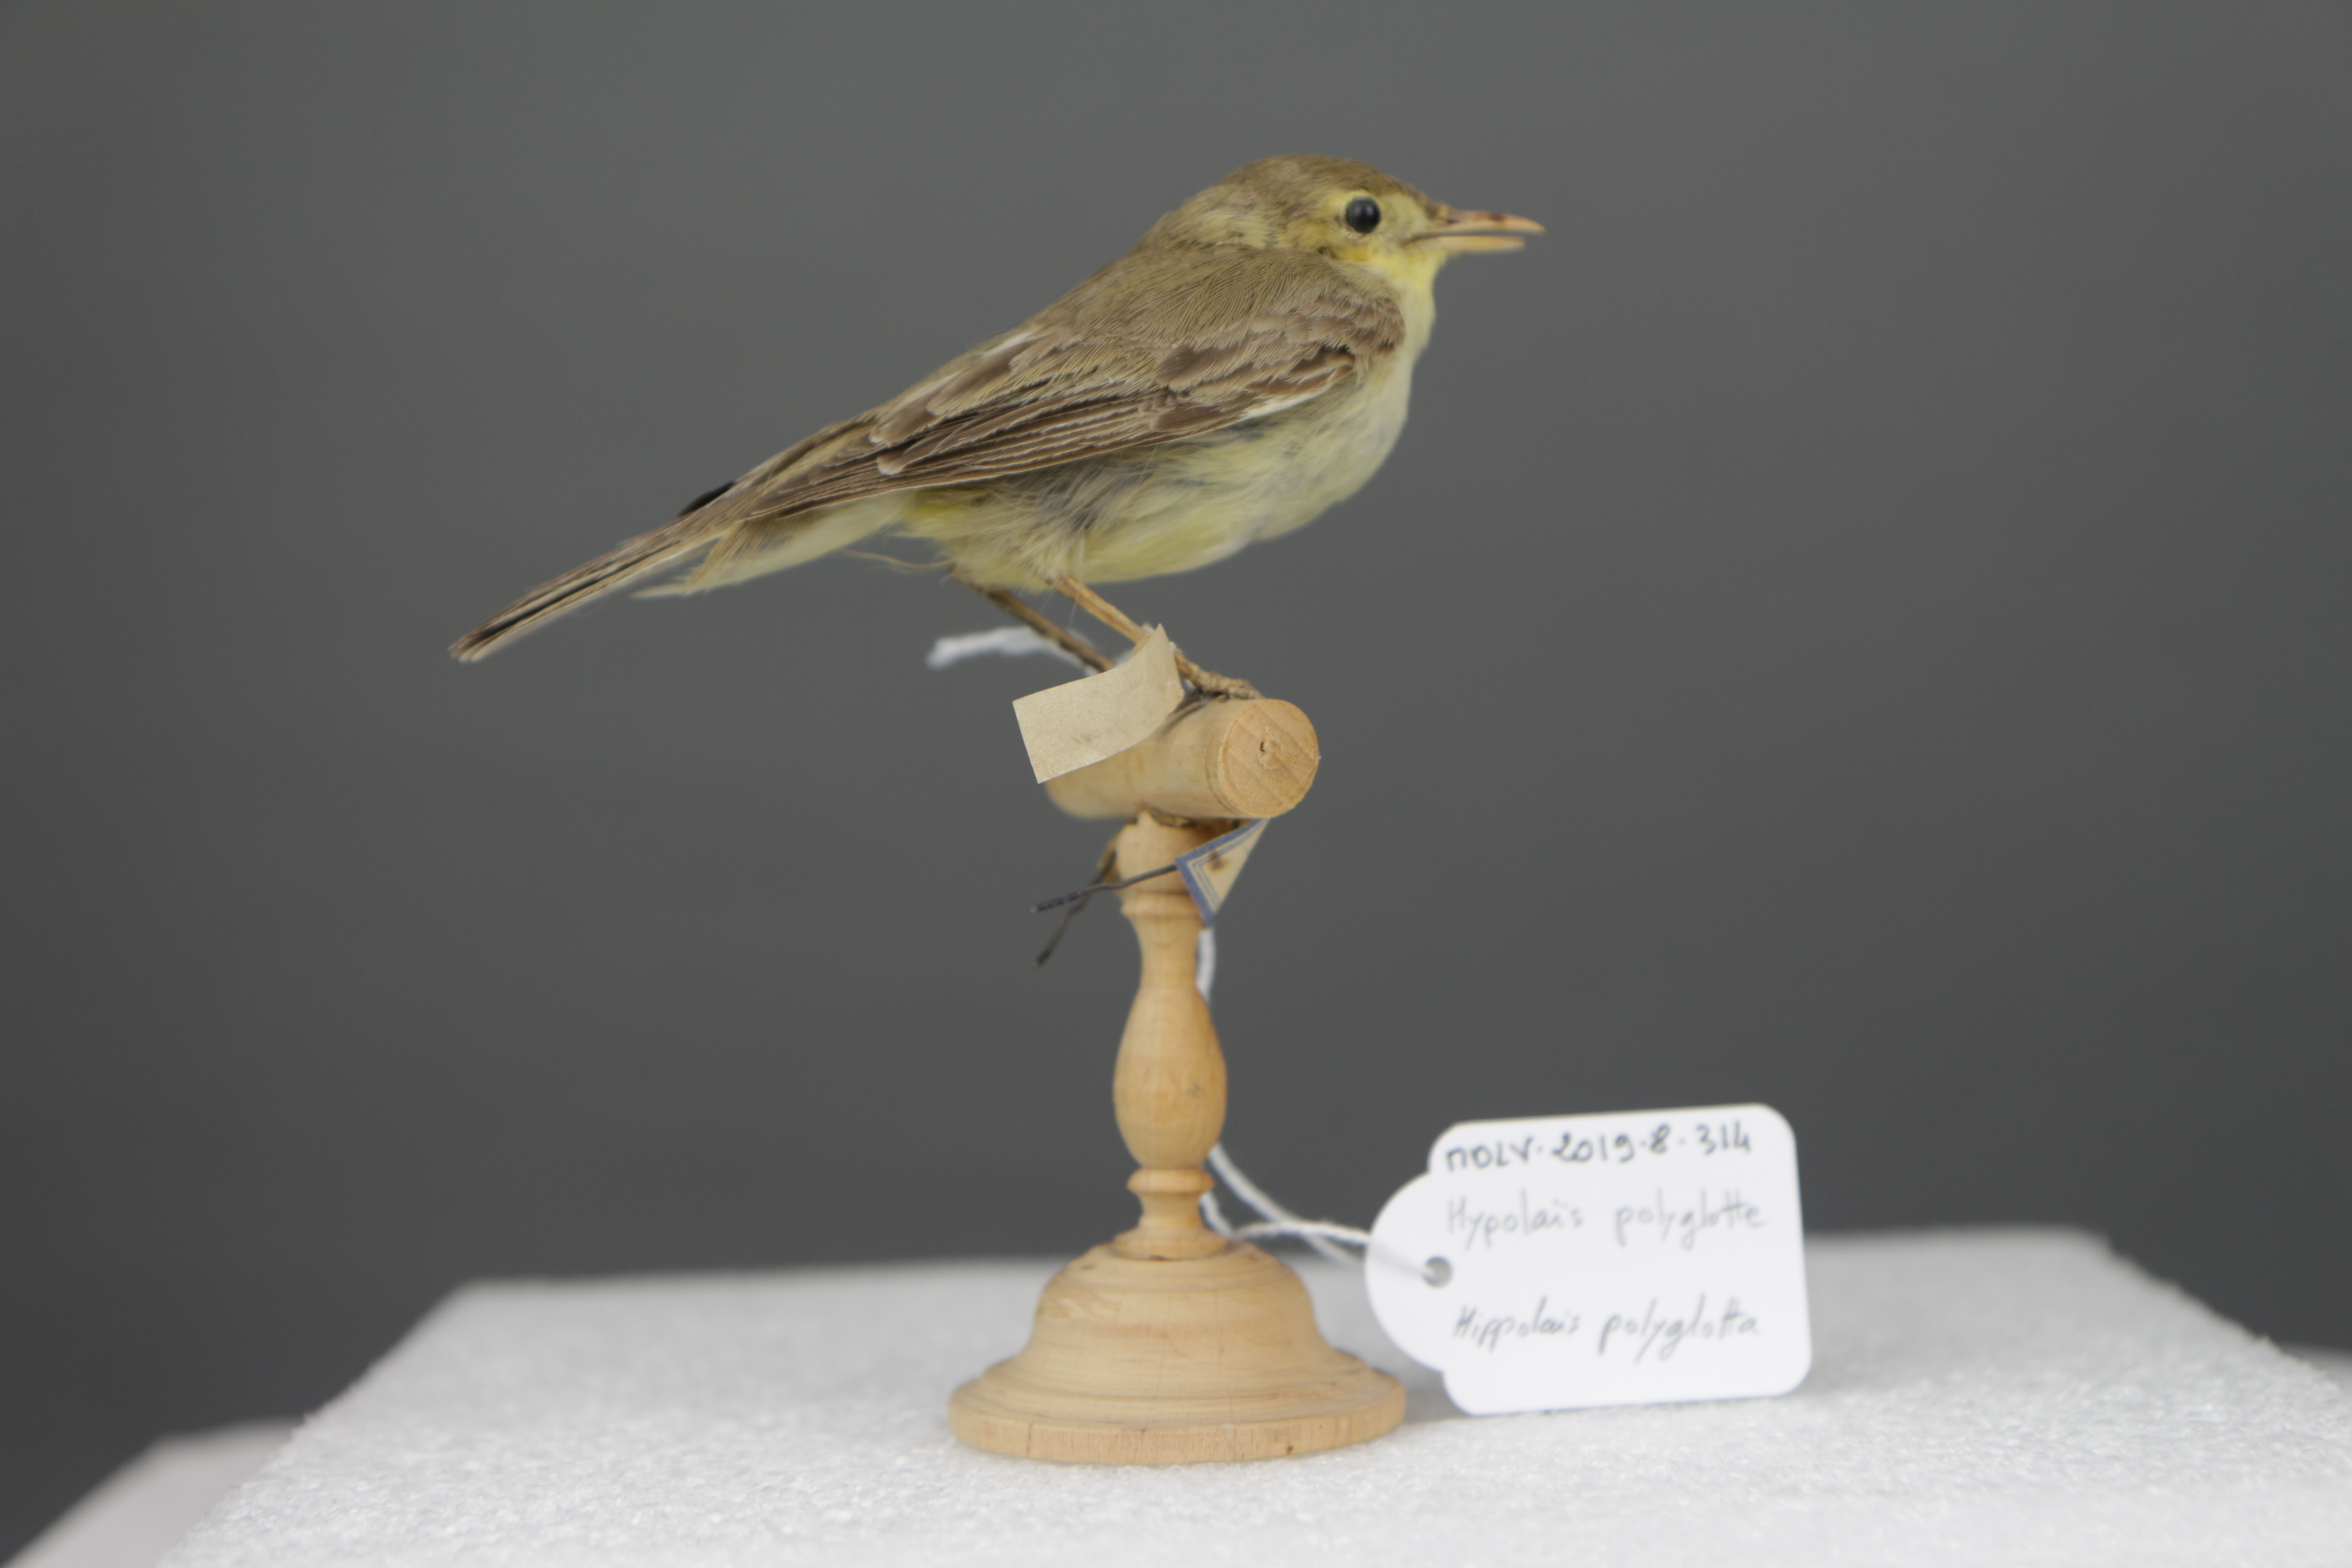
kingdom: Animalia
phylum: Chordata
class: Aves
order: Passeriformes
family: Acrocephalidae
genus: Hippolais
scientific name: Hippolais polyglotta
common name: Melodious warbler
